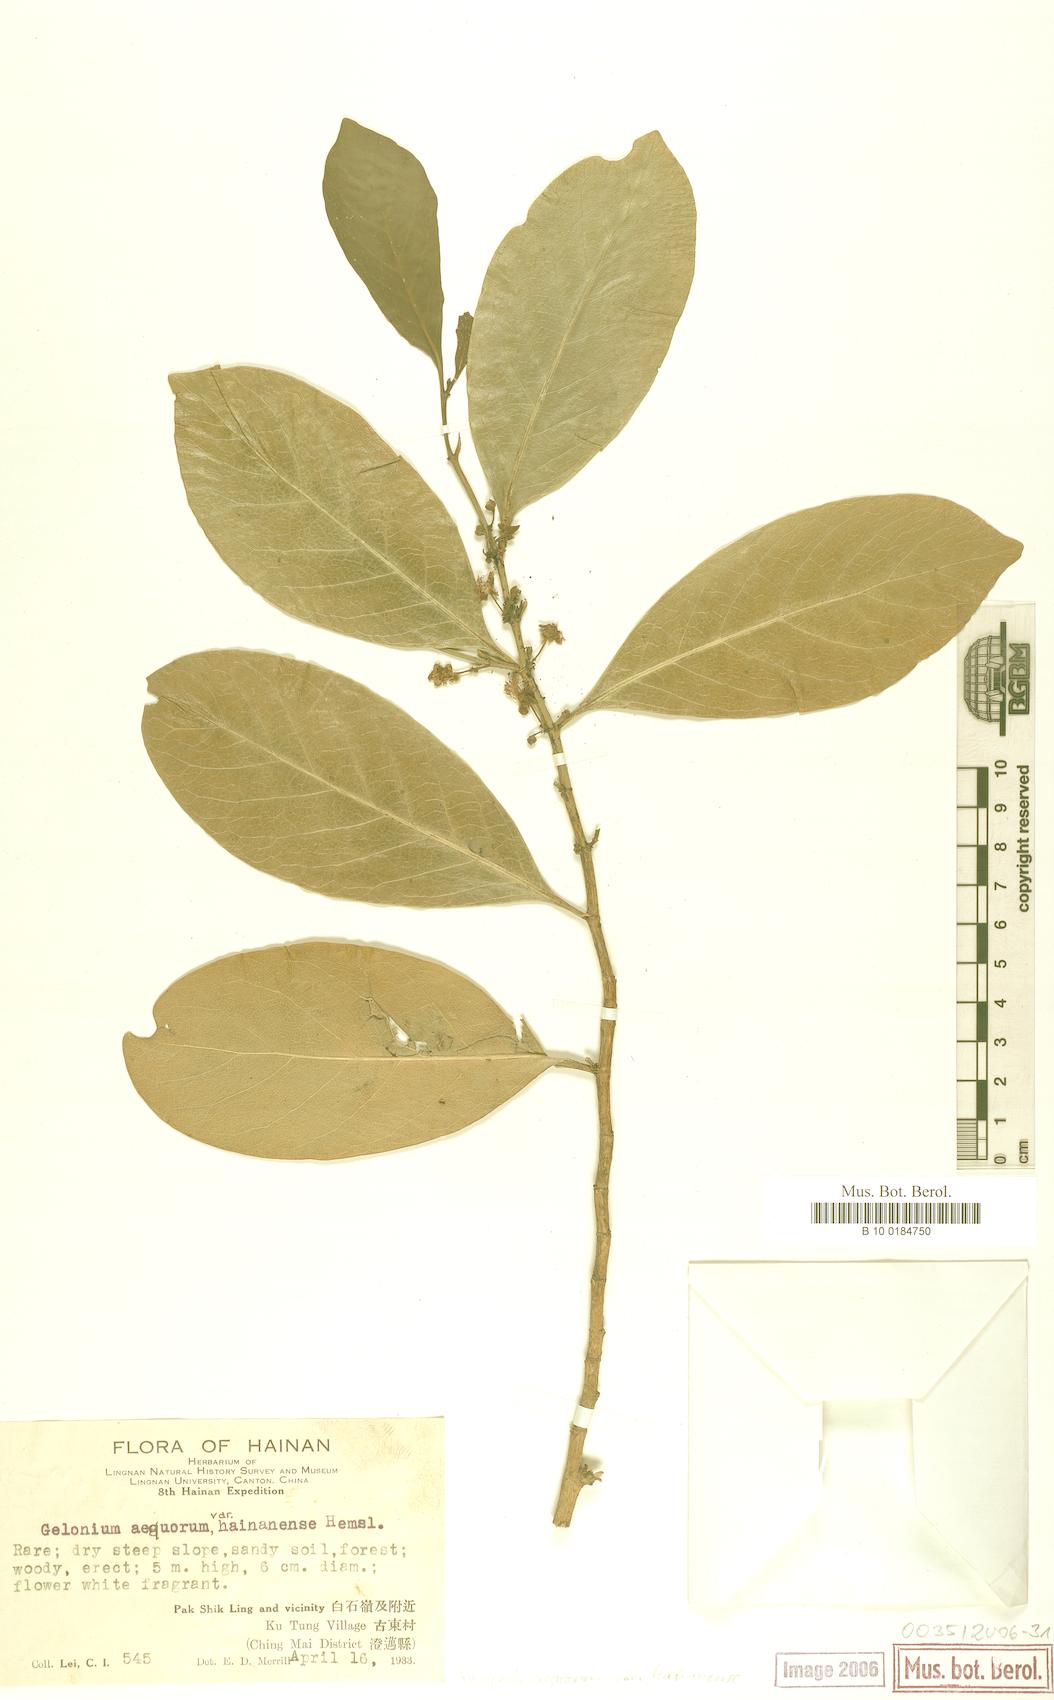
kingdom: Plantae
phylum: Tracheophyta
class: Magnoliopsida
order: Malpighiales
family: Euphorbiaceae
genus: Suregada
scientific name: Suregada multiflora
